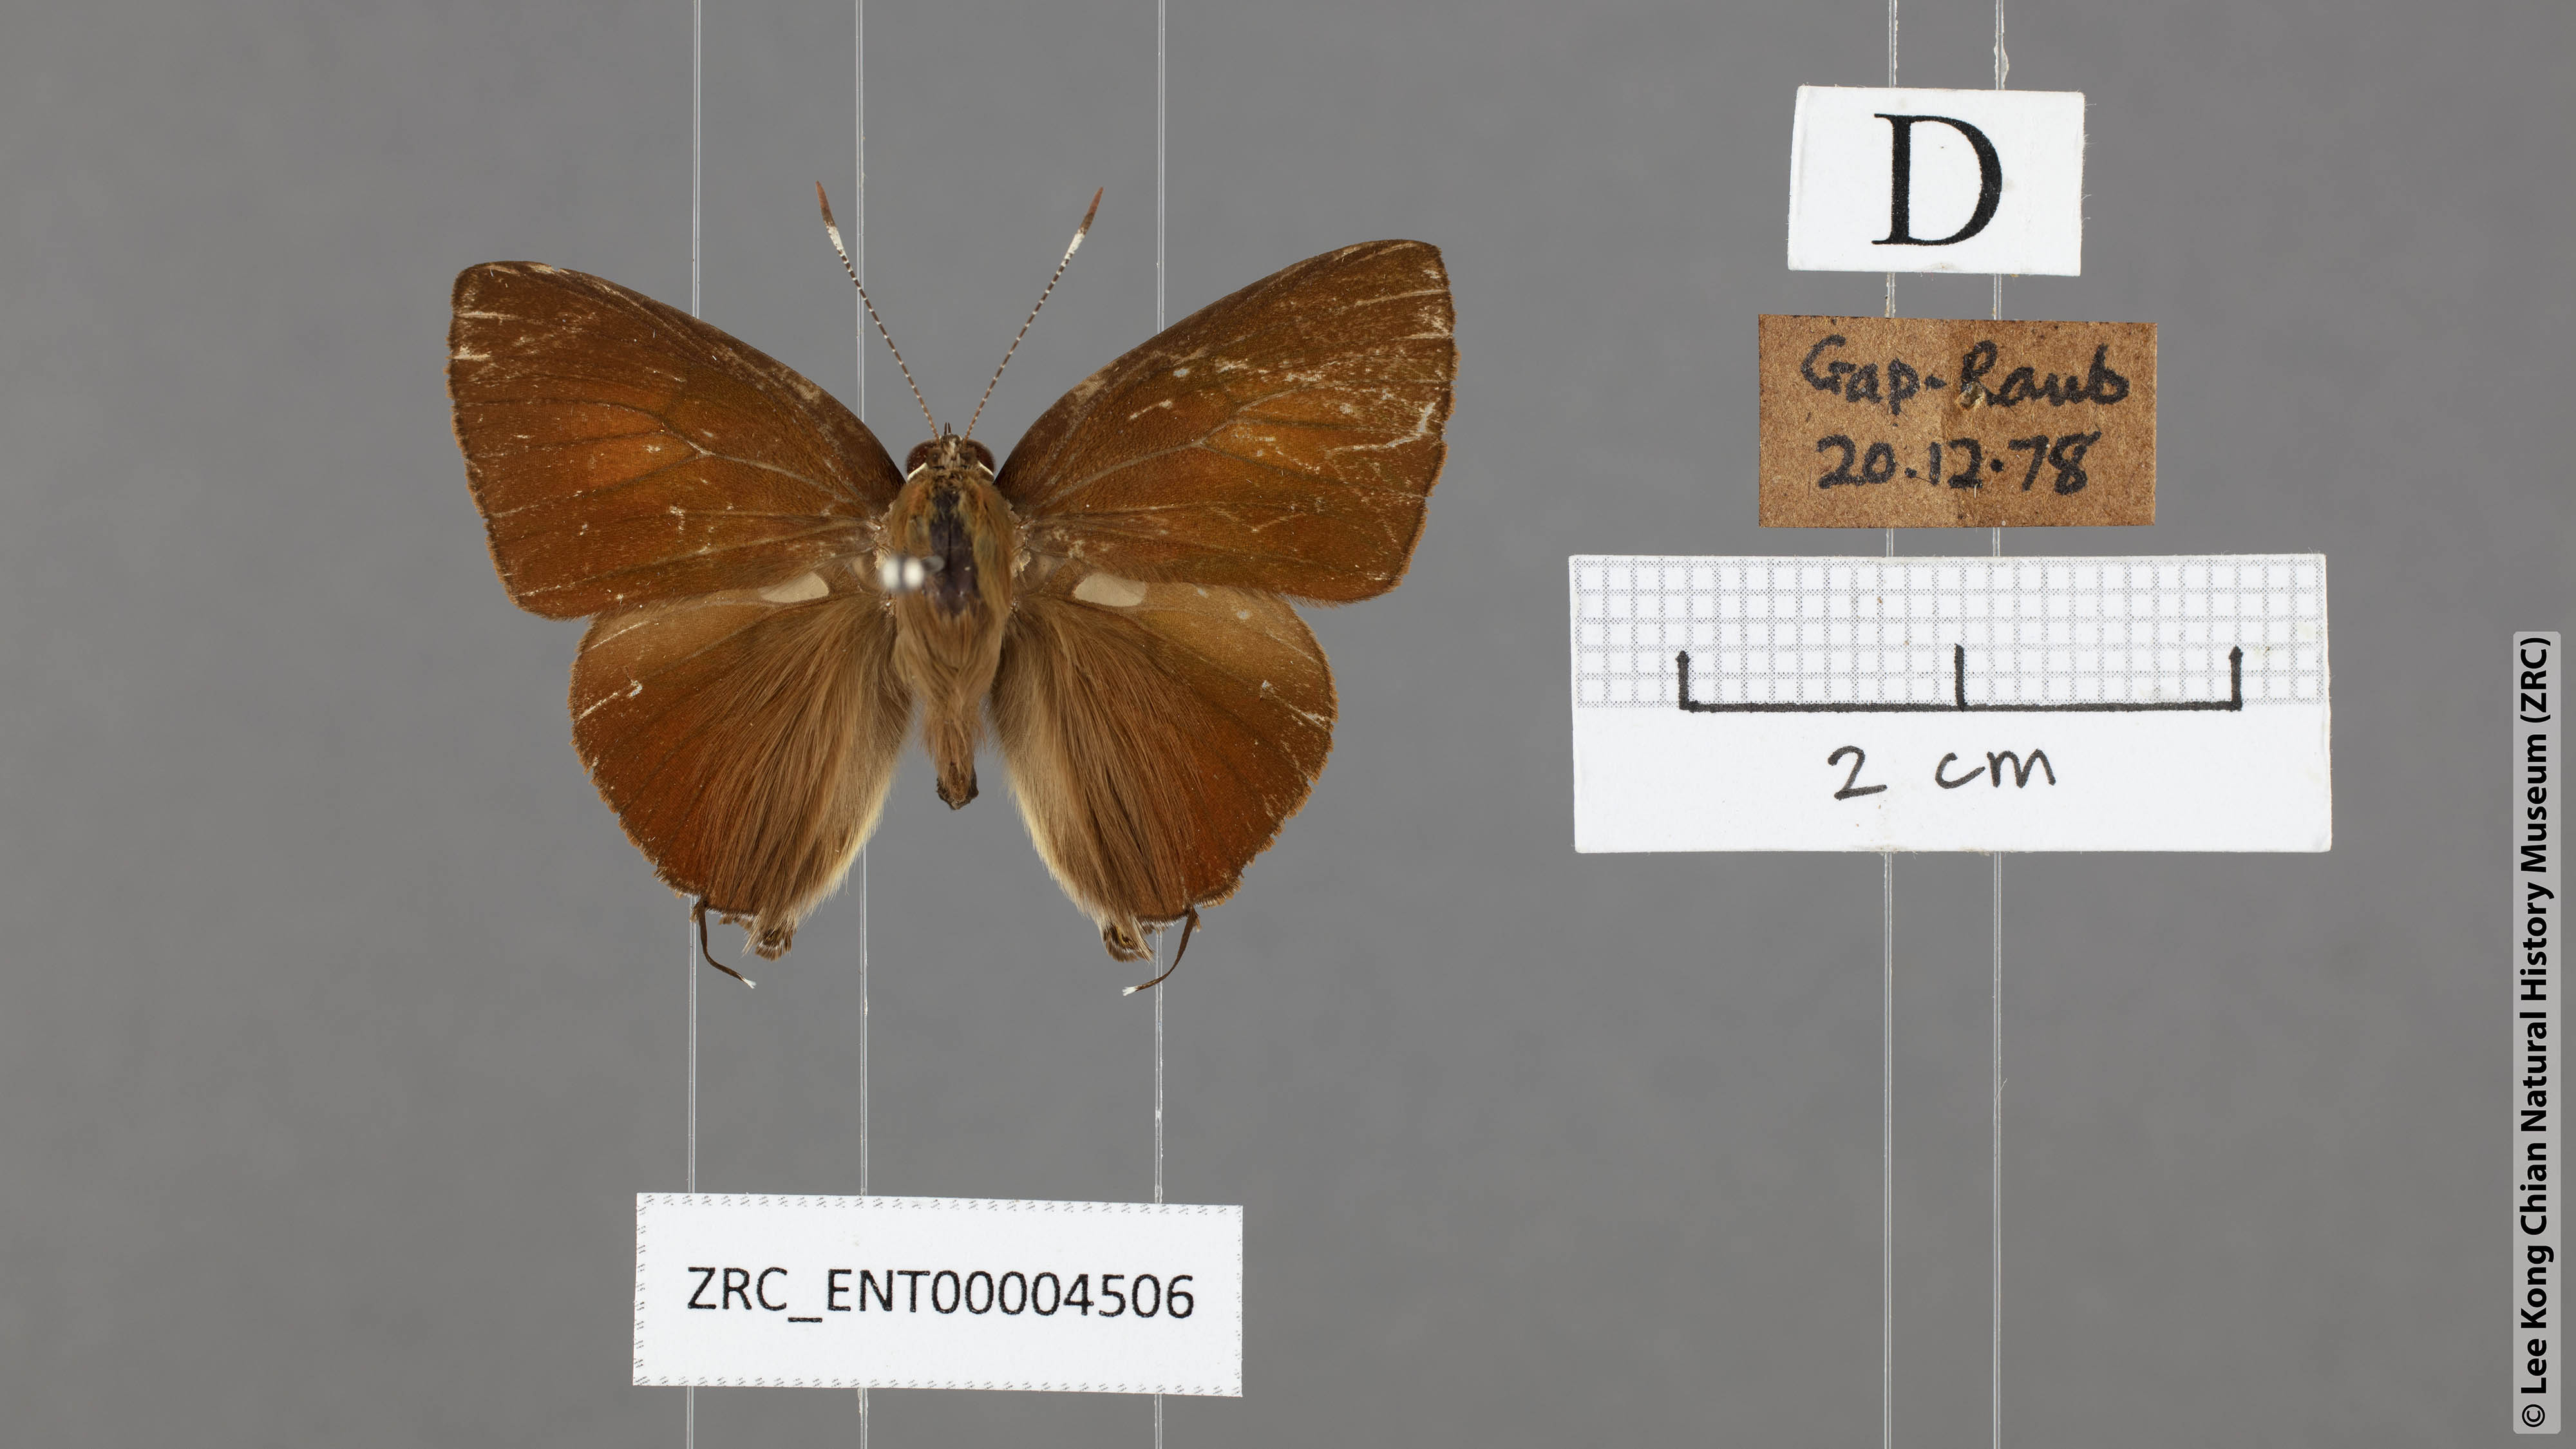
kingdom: Animalia
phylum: Arthropoda
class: Insecta
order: Lepidoptera
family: Lycaenidae
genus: Rapala
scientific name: Rapala pheretima
